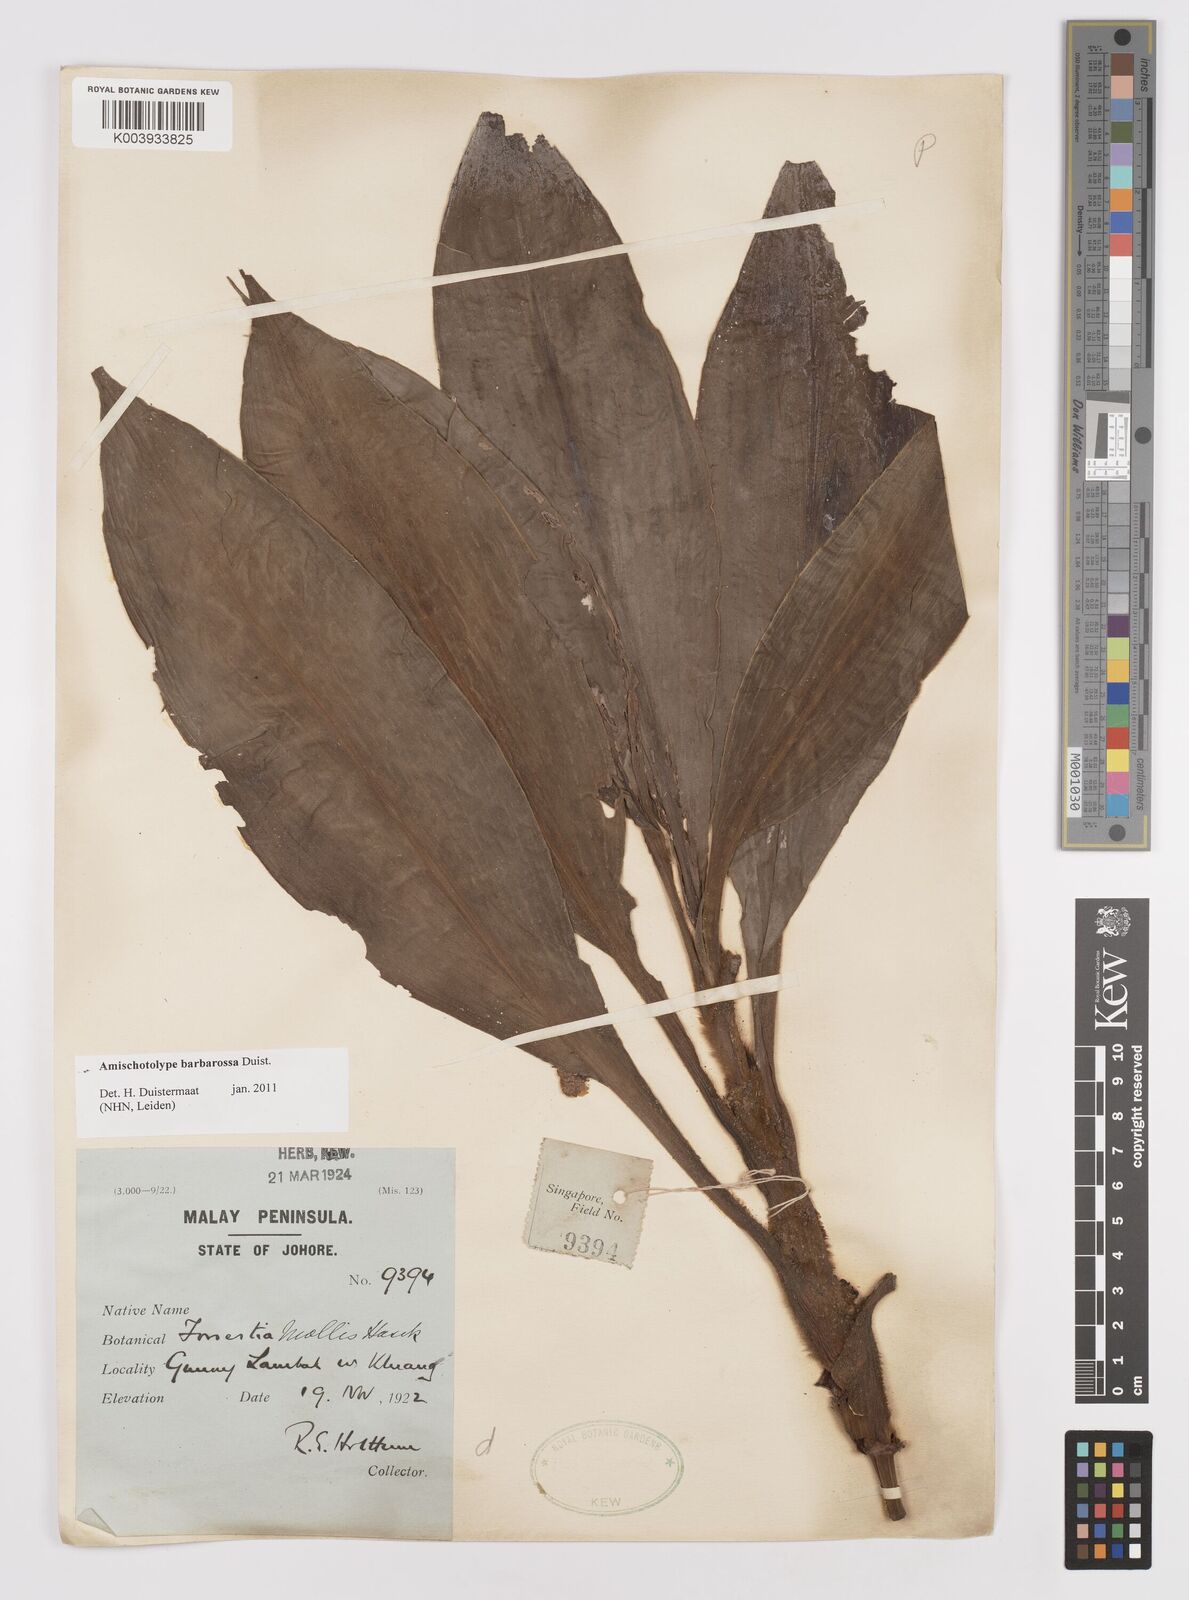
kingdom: Plantae
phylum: Tracheophyta
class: Liliopsida
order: Commelinales
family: Commelinaceae
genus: Amischotolype
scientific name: Amischotolype barbarossa
